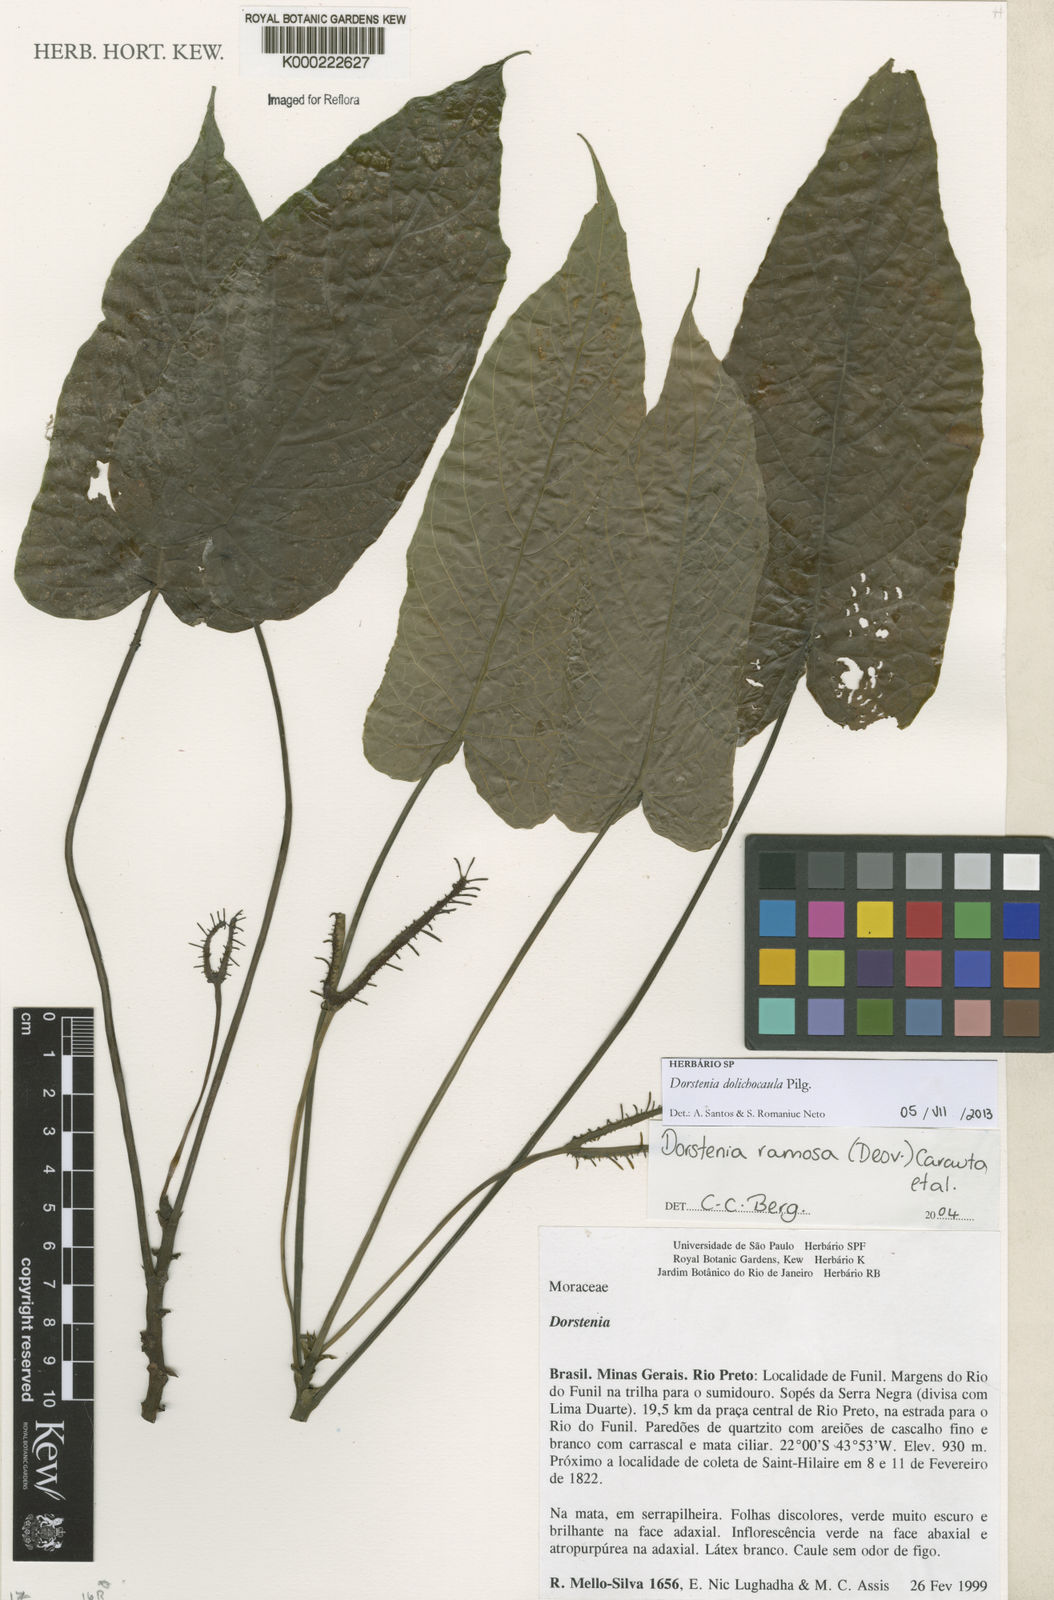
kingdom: Plantae
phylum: Tracheophyta
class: Magnoliopsida
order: Rosales
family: Moraceae
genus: Dorstenia
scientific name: Dorstenia ramosa
